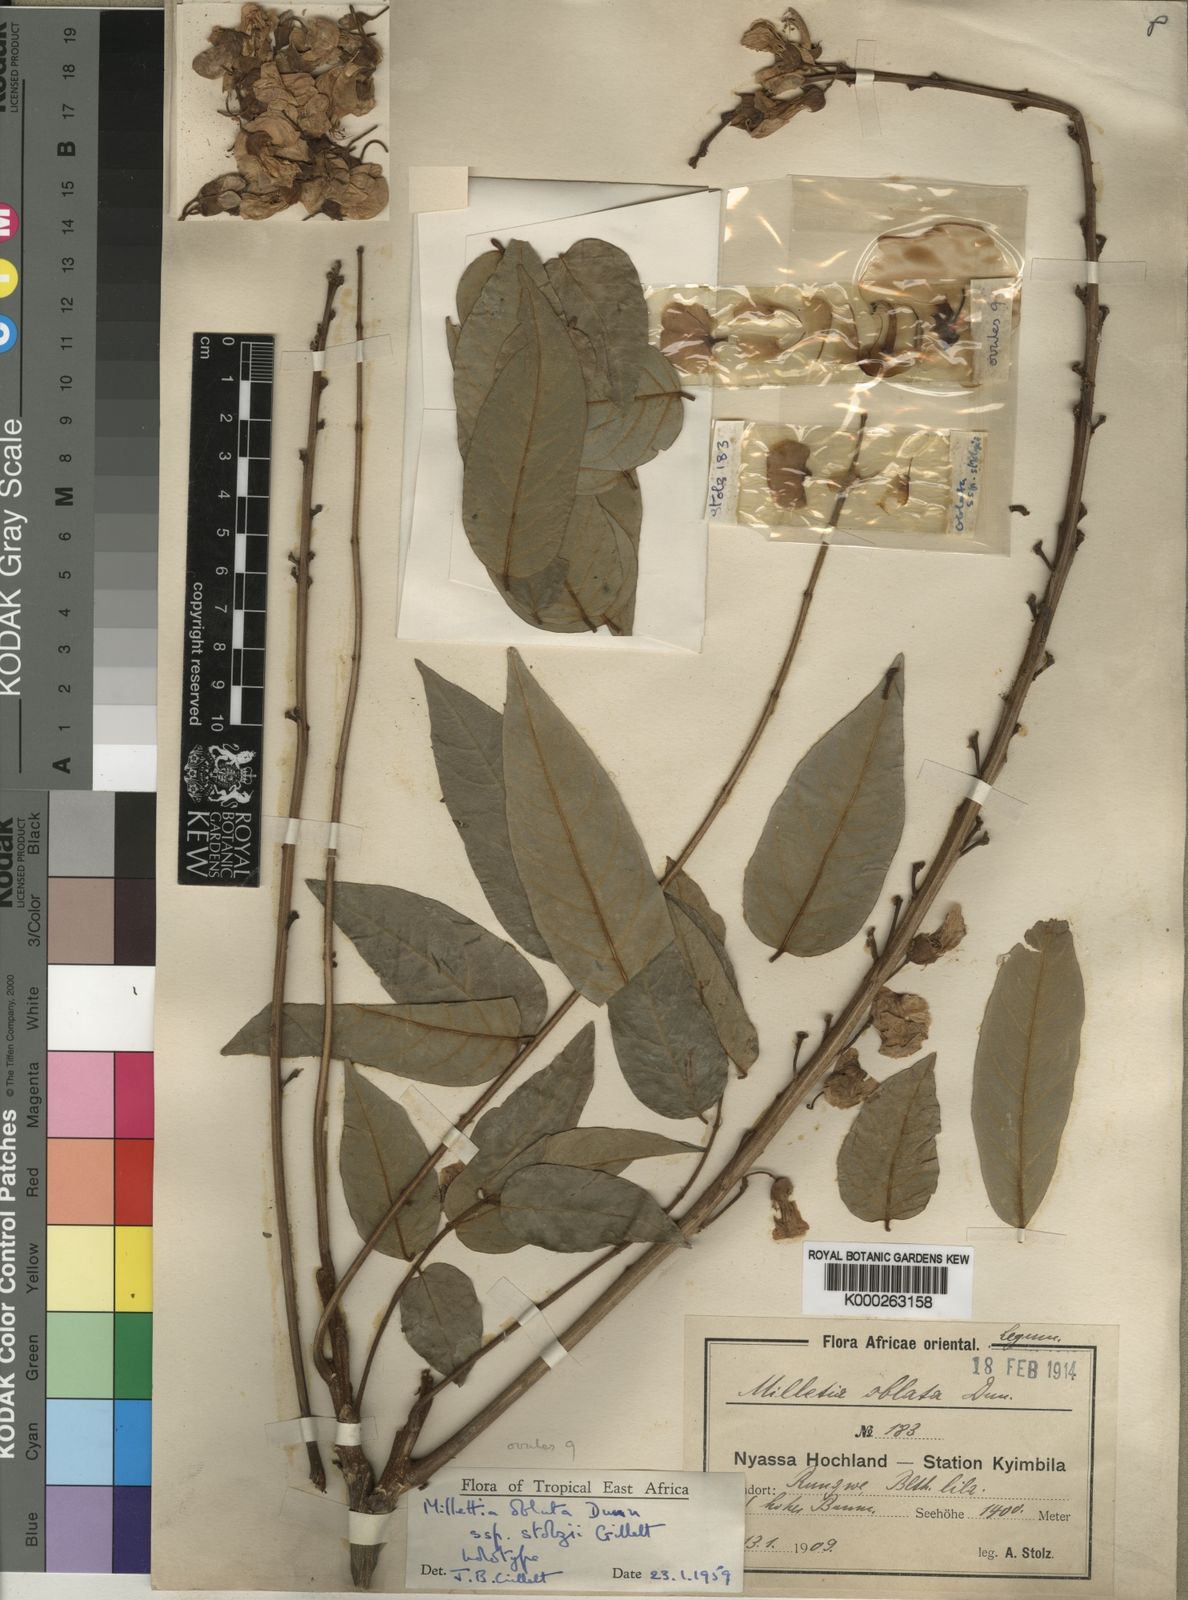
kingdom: Plantae
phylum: Tracheophyta
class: Magnoliopsida
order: Fabales
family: Fabaceae
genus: Millettia
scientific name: Millettia
